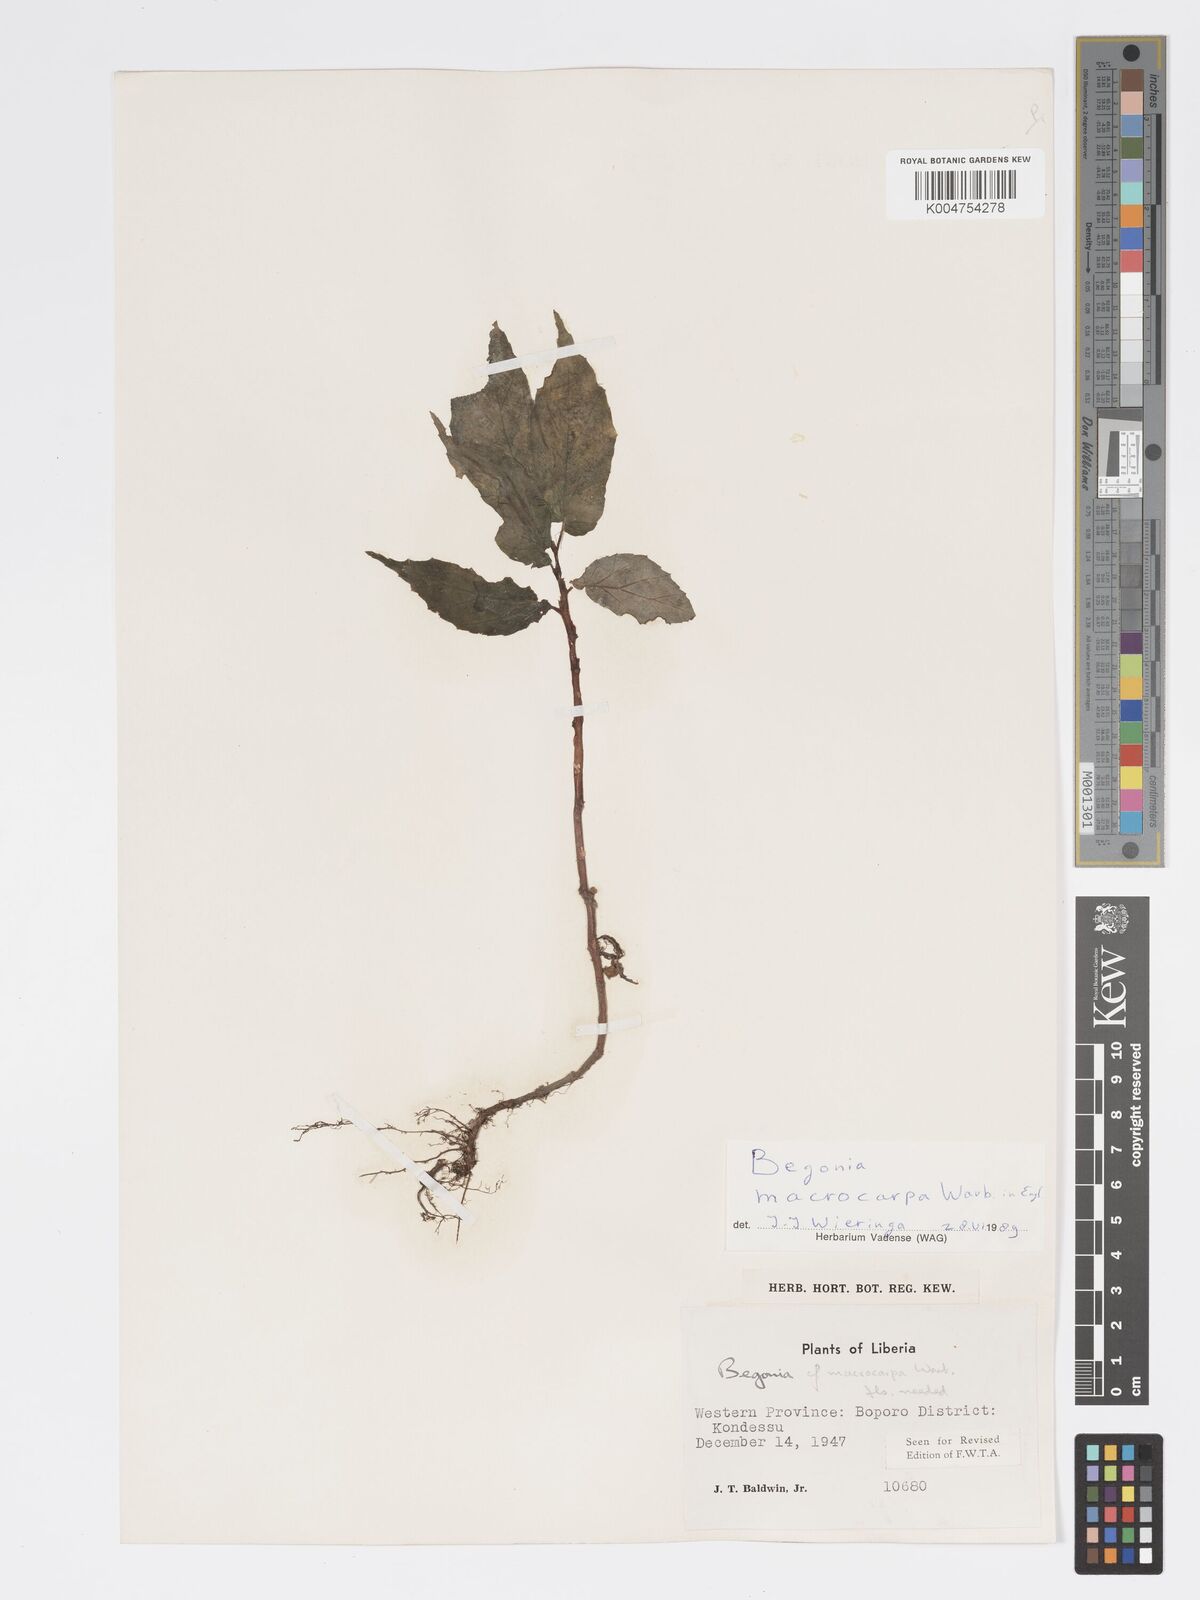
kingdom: Plantae
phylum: Tracheophyta
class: Magnoliopsida
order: Cucurbitales
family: Begoniaceae
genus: Begonia
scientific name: Begonia macrocarpa
